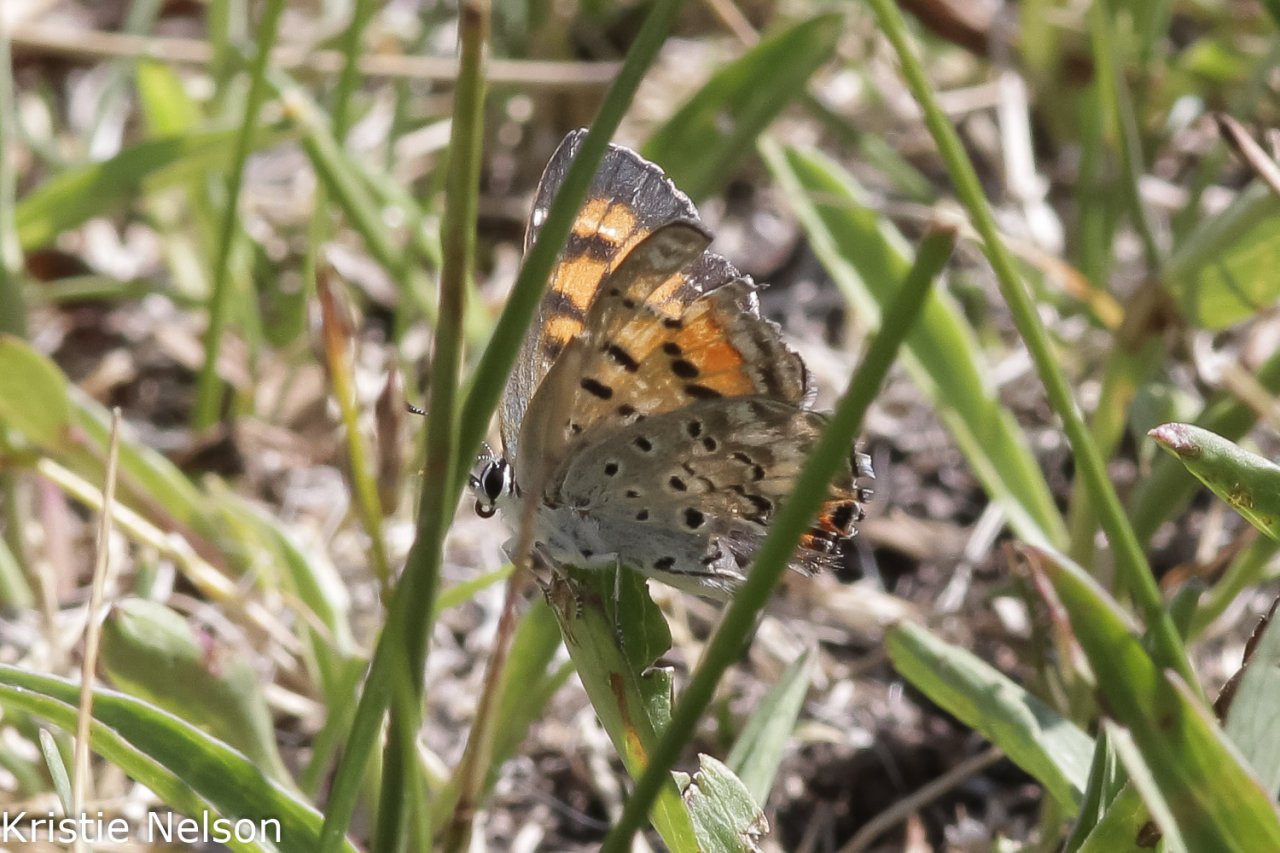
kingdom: Animalia
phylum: Arthropoda
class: Insecta
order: Lepidoptera
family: Sesiidae
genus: Sesia
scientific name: Sesia Lycaena arota
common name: Tailed Copper
